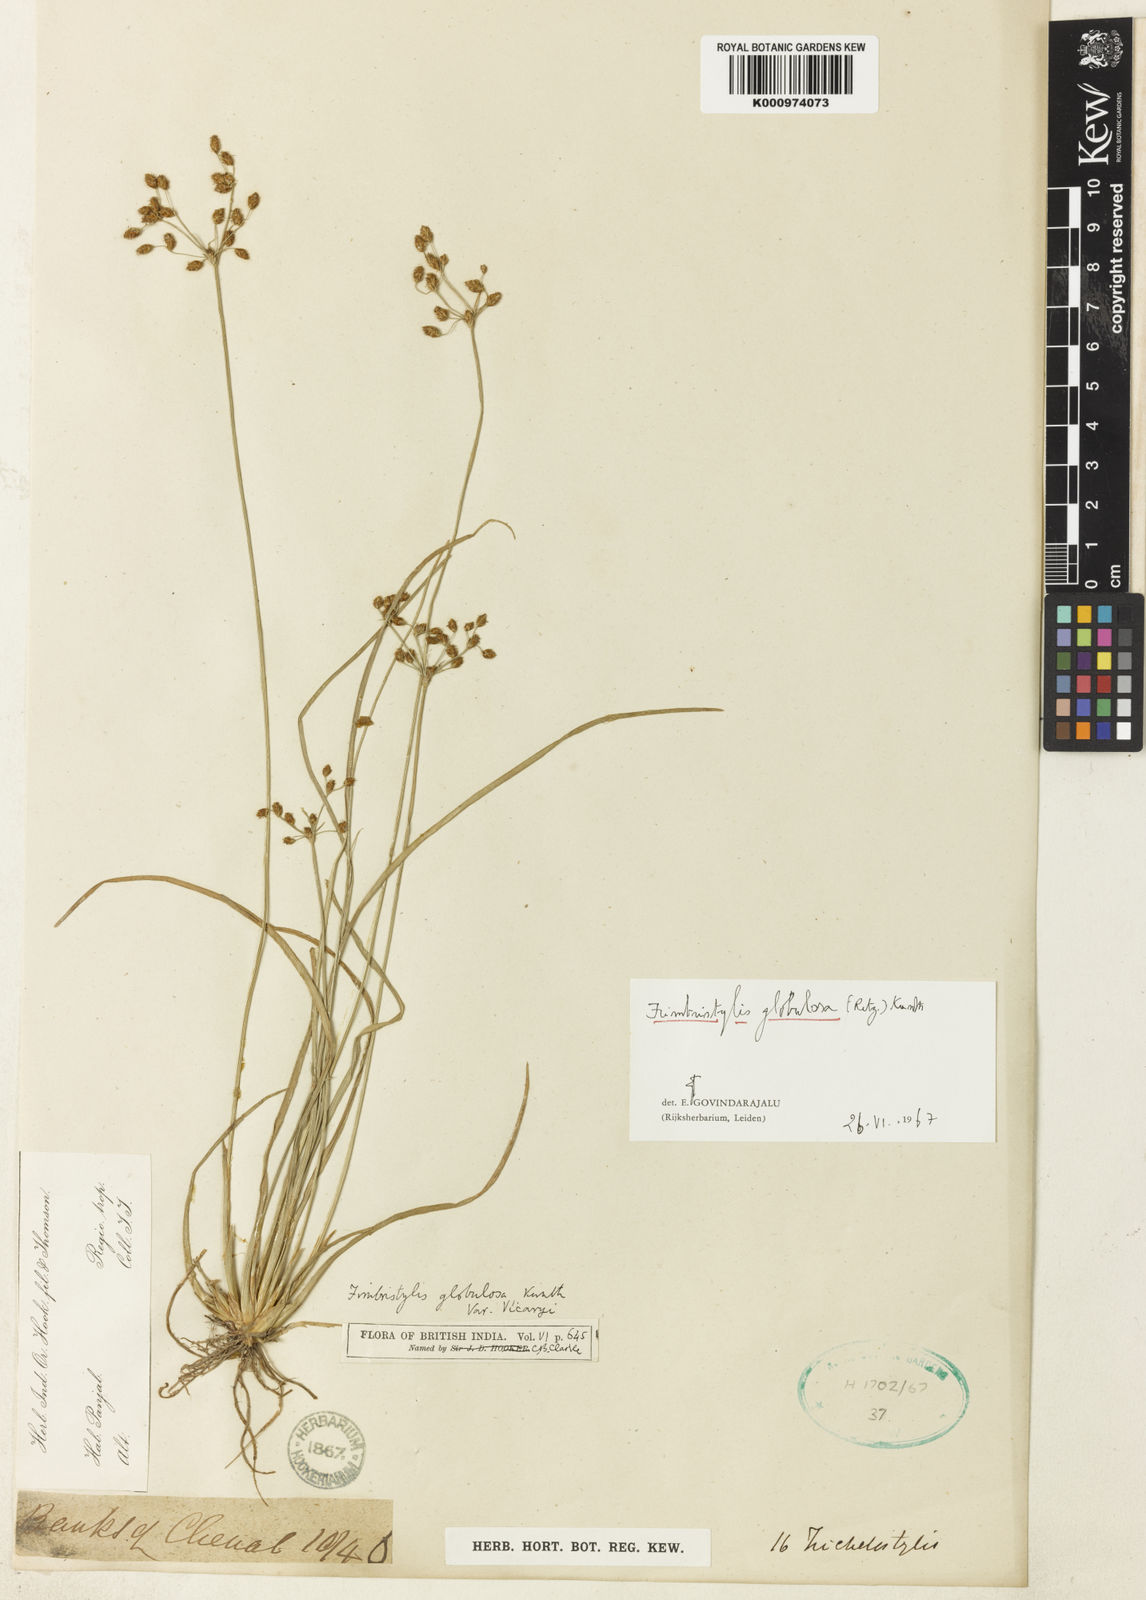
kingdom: Plantae
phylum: Tracheophyta
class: Liliopsida
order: Poales
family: Cyperaceae
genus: Fimbristylis
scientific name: Fimbristylis umbellaris
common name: Globular fimbristylis
